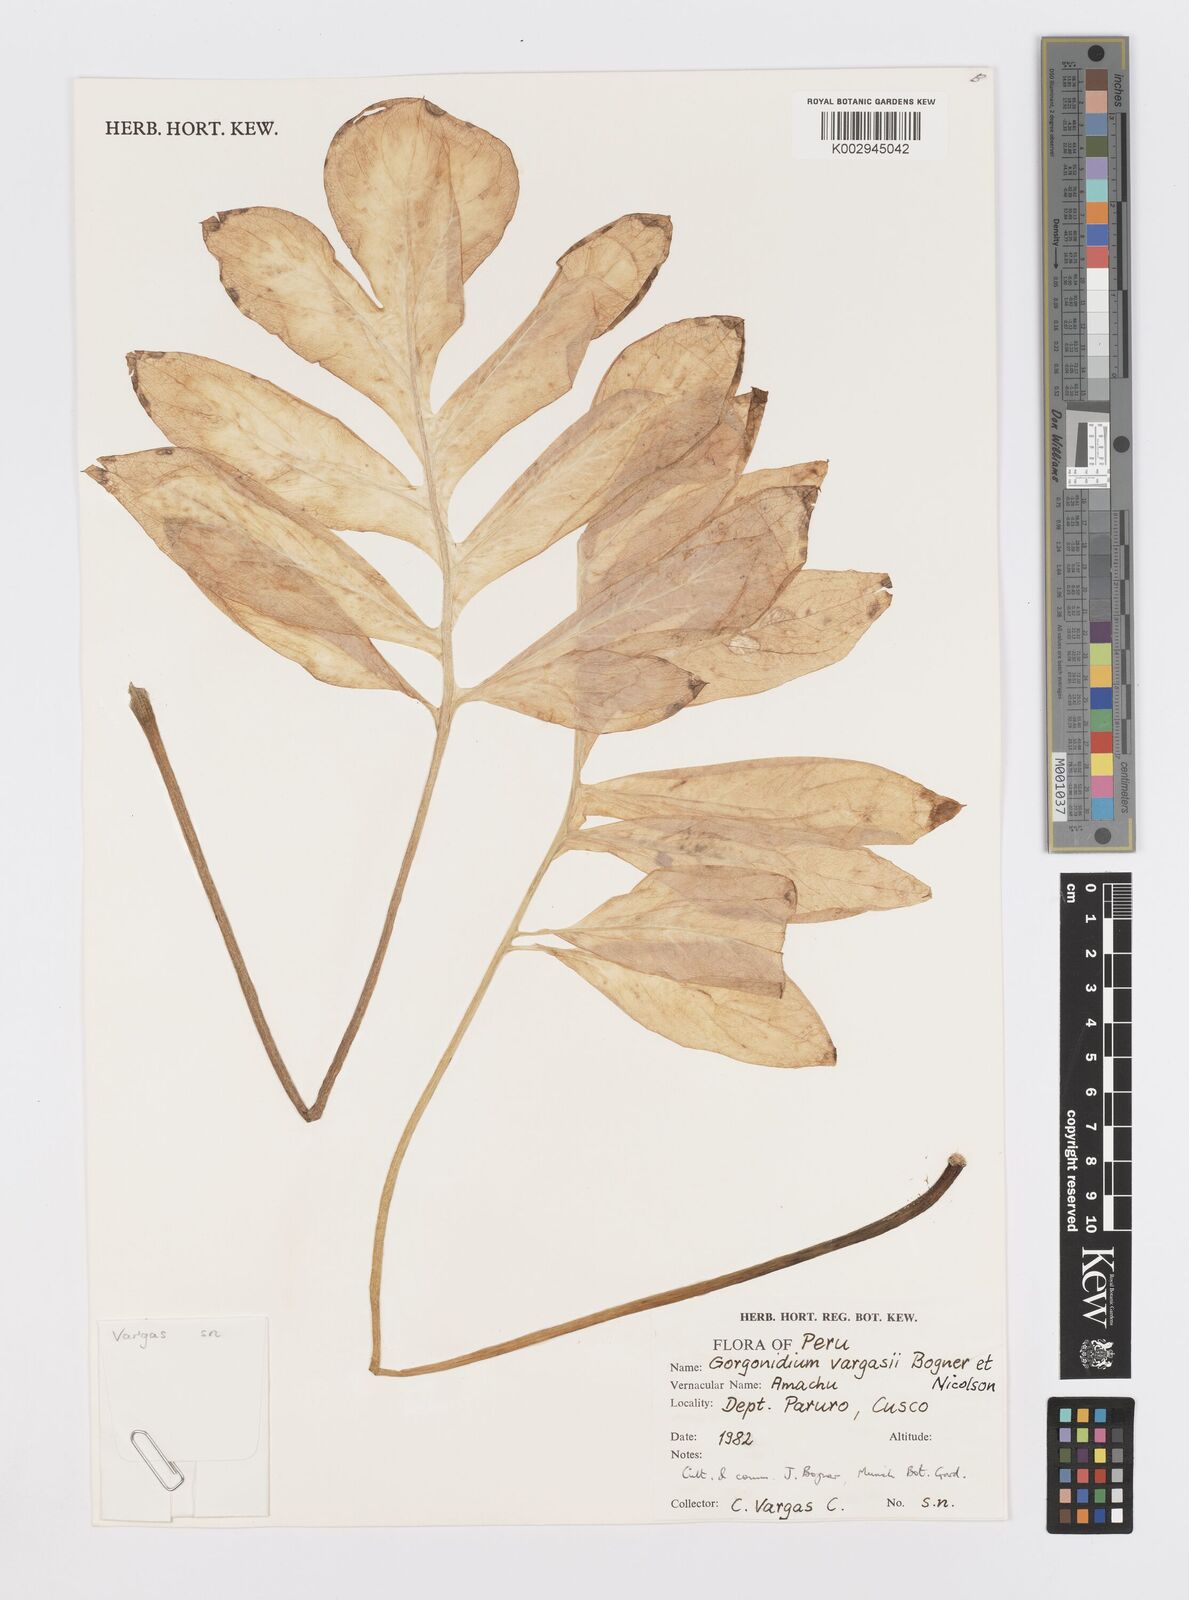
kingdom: Plantae
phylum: Tracheophyta
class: Liliopsida
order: Alismatales
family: Araceae
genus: Gorgonidium
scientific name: Gorgonidium vargasii
